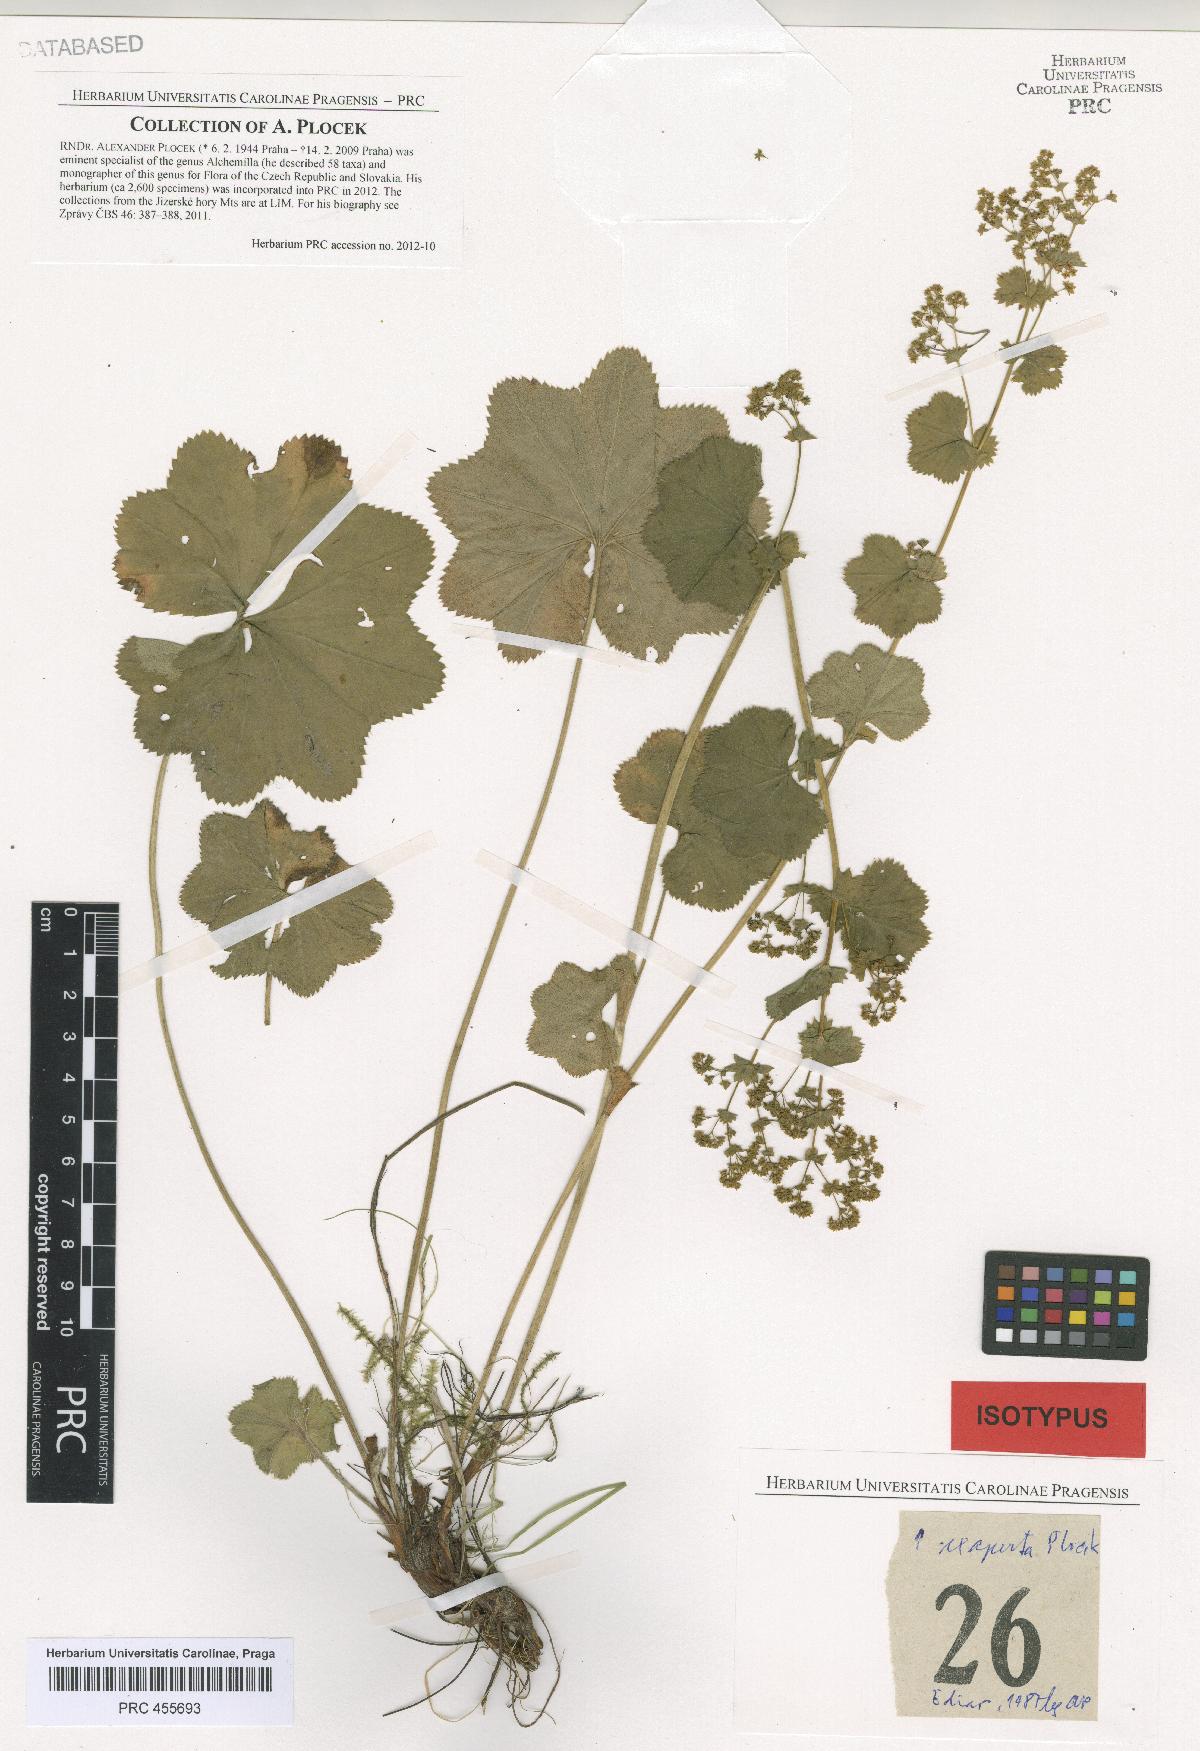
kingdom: Plantae
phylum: Tracheophyta
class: Magnoliopsida
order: Rosales
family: Rosaceae
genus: Alchemilla
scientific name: Alchemilla exaperta
